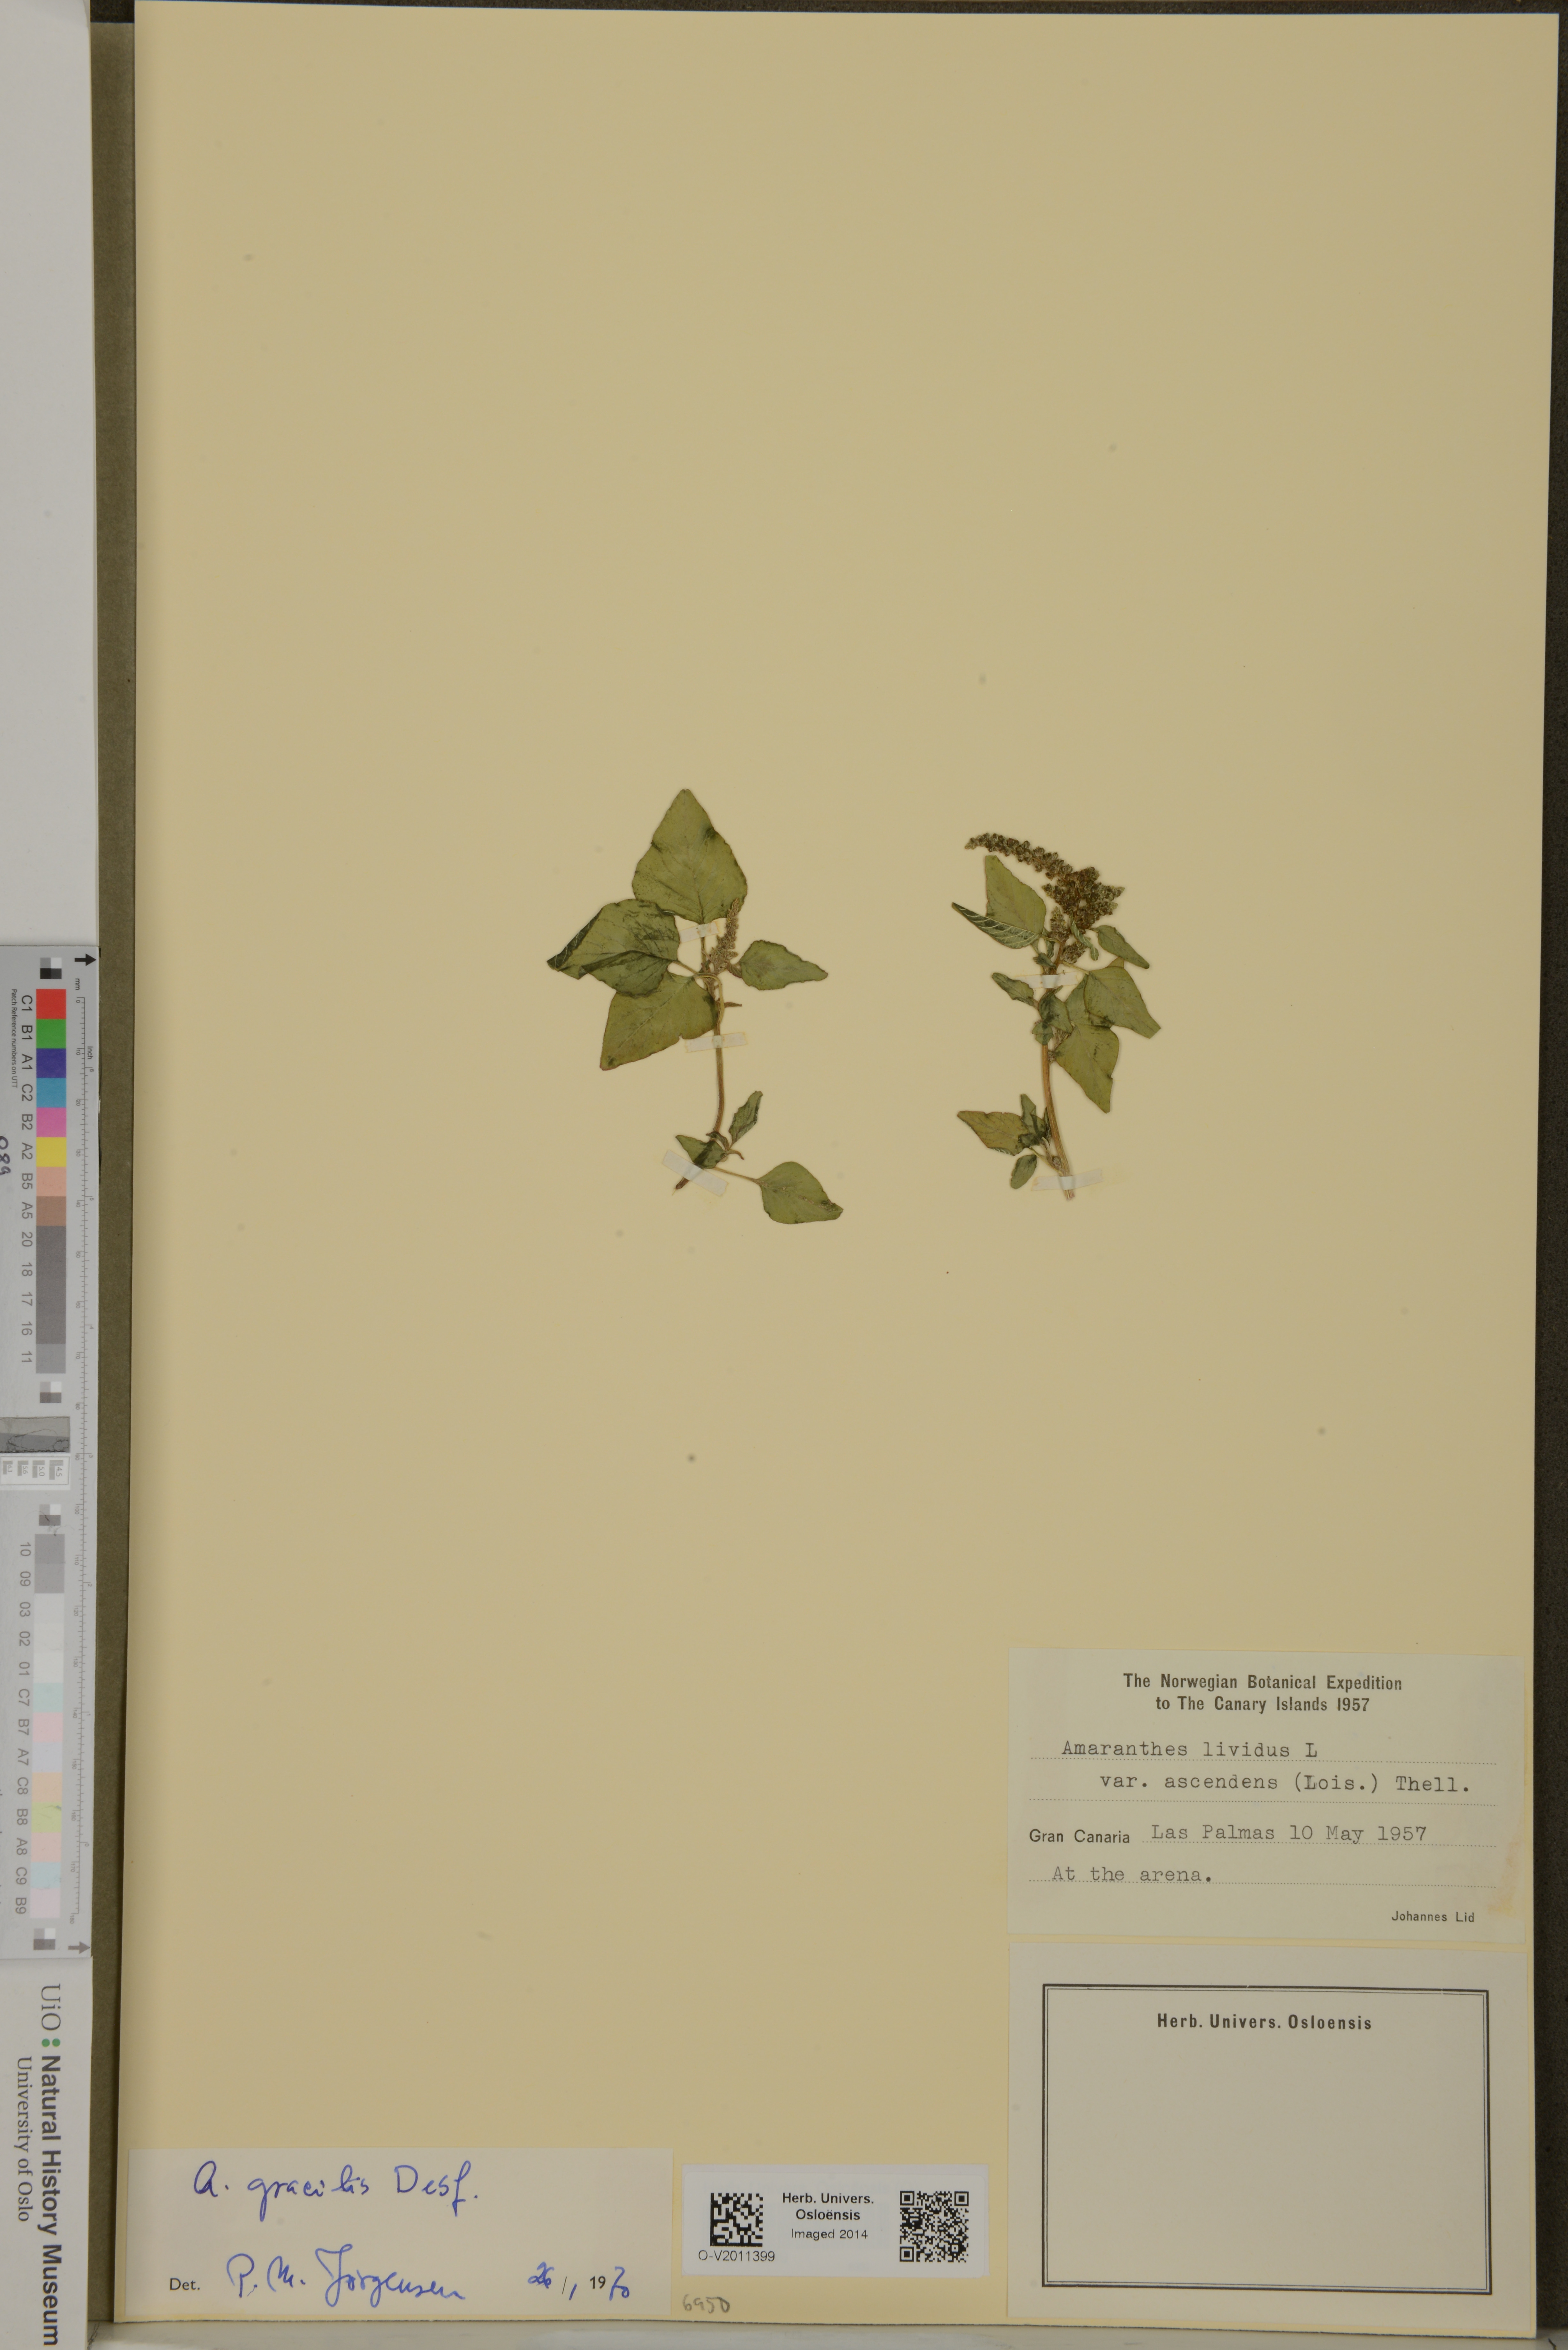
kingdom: Plantae
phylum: Tracheophyta
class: Magnoliopsida
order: Caryophyllales
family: Amaranthaceae
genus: Amaranthus
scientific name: Amaranthus viridis
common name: Slender amaranth
